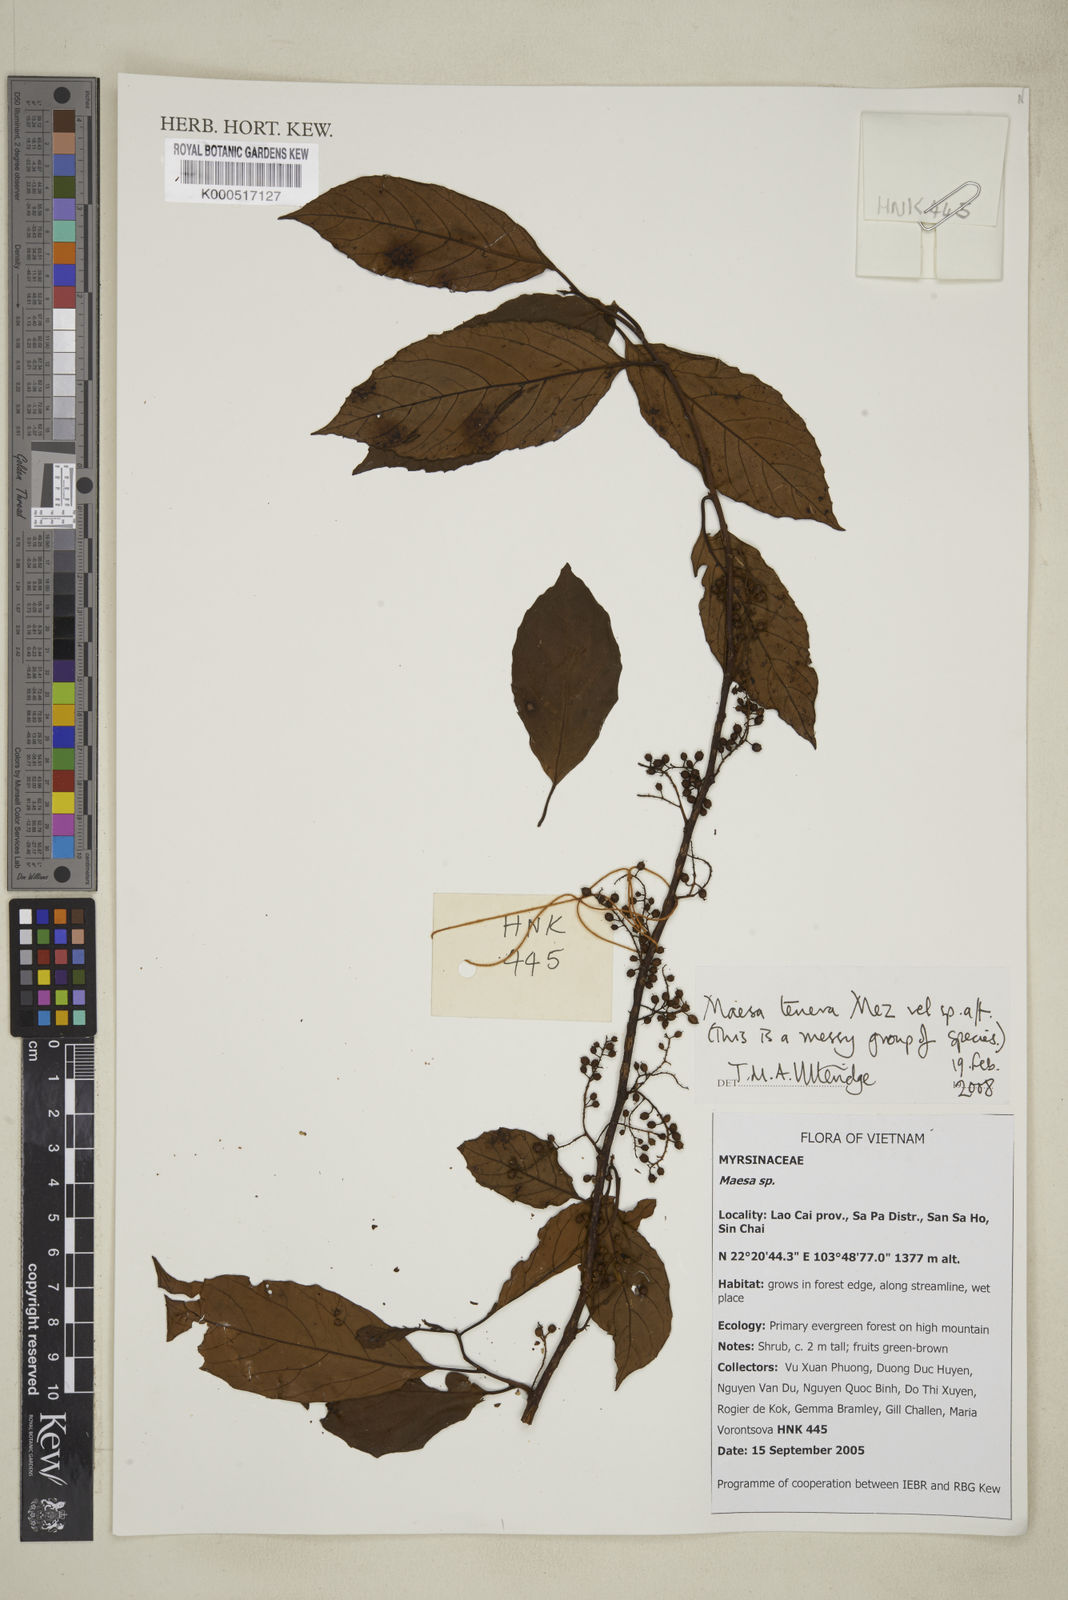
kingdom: Plantae
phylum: Tracheophyta
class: Magnoliopsida
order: Ericales
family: Primulaceae
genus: Maesa
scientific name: Maesa perlaria
